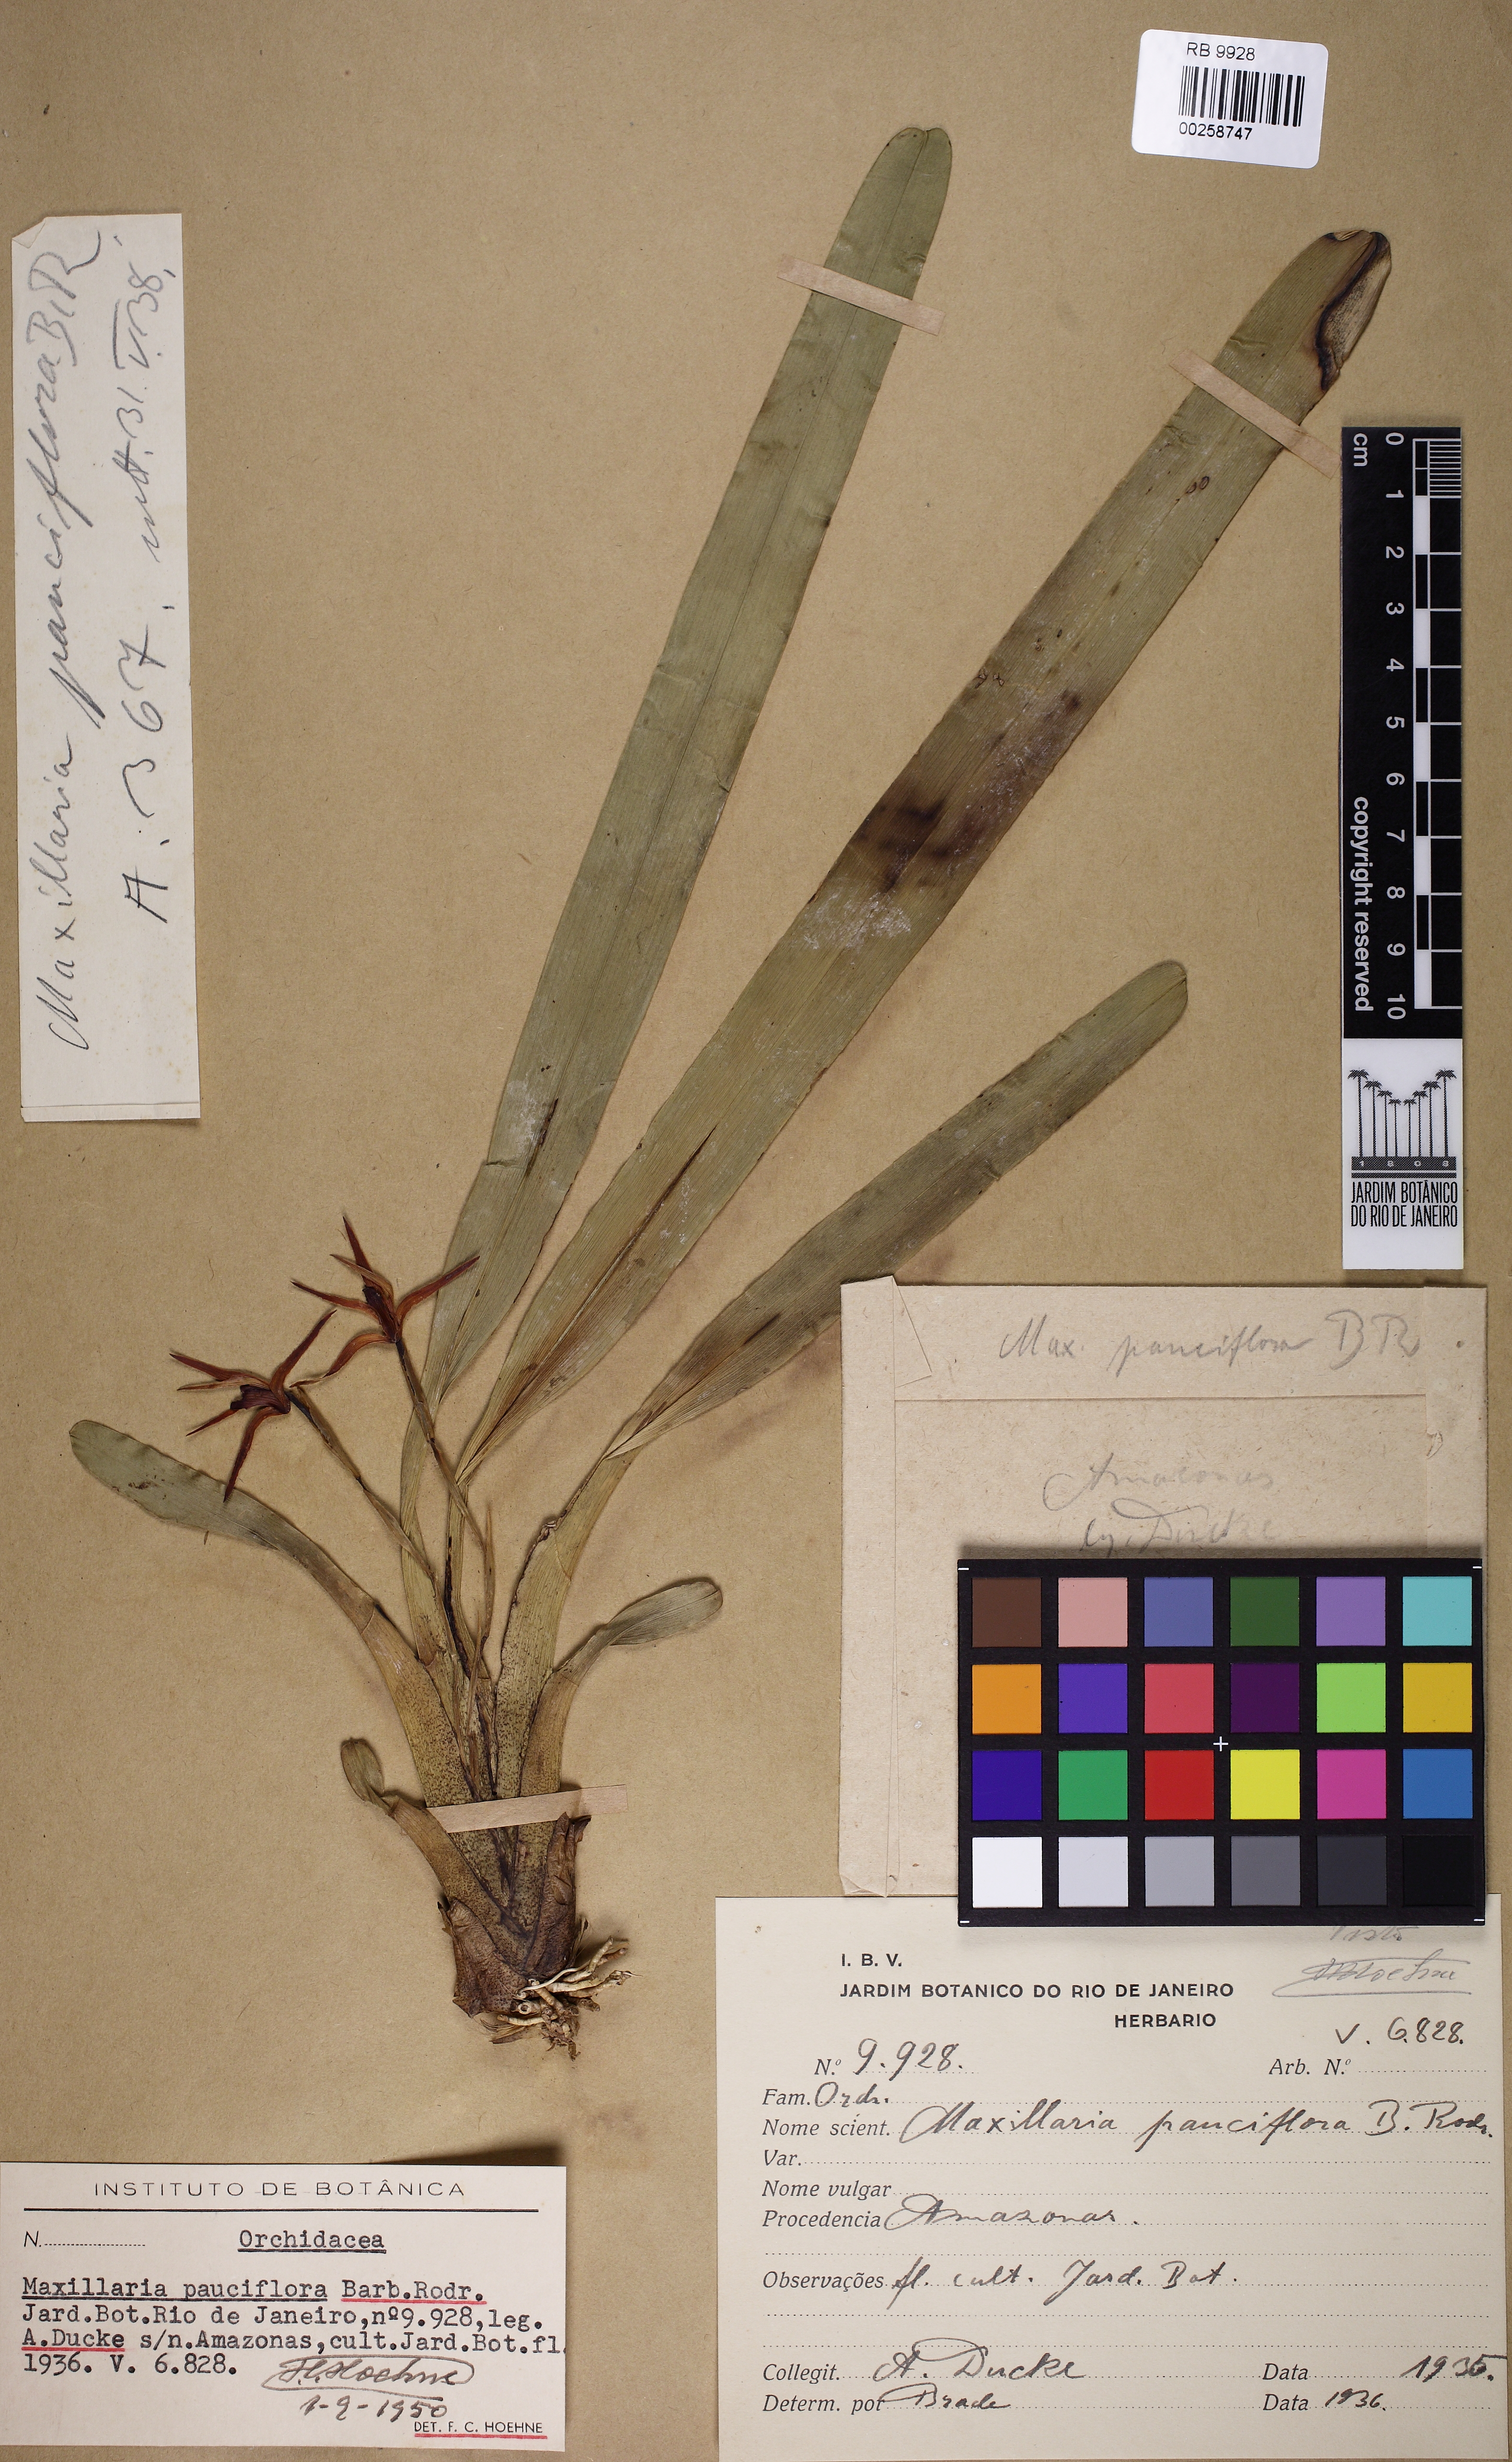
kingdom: Plantae
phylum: Tracheophyta
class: Liliopsida
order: Asparagales
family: Orchidaceae
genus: Maxillaria
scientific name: Maxillaria pauciflora
